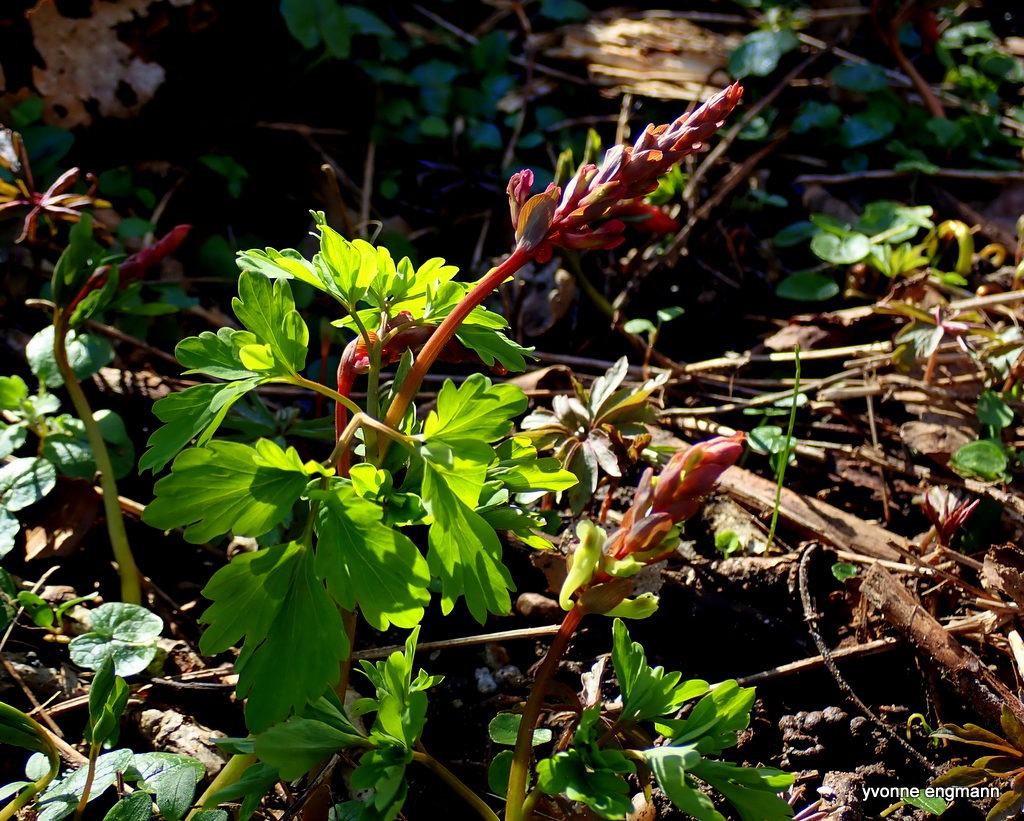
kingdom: Plantae
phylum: Tracheophyta
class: Magnoliopsida
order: Ranunculales
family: Papaveraceae
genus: Corydalis
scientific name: Corydalis cava
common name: Hulrodet lærkespore
